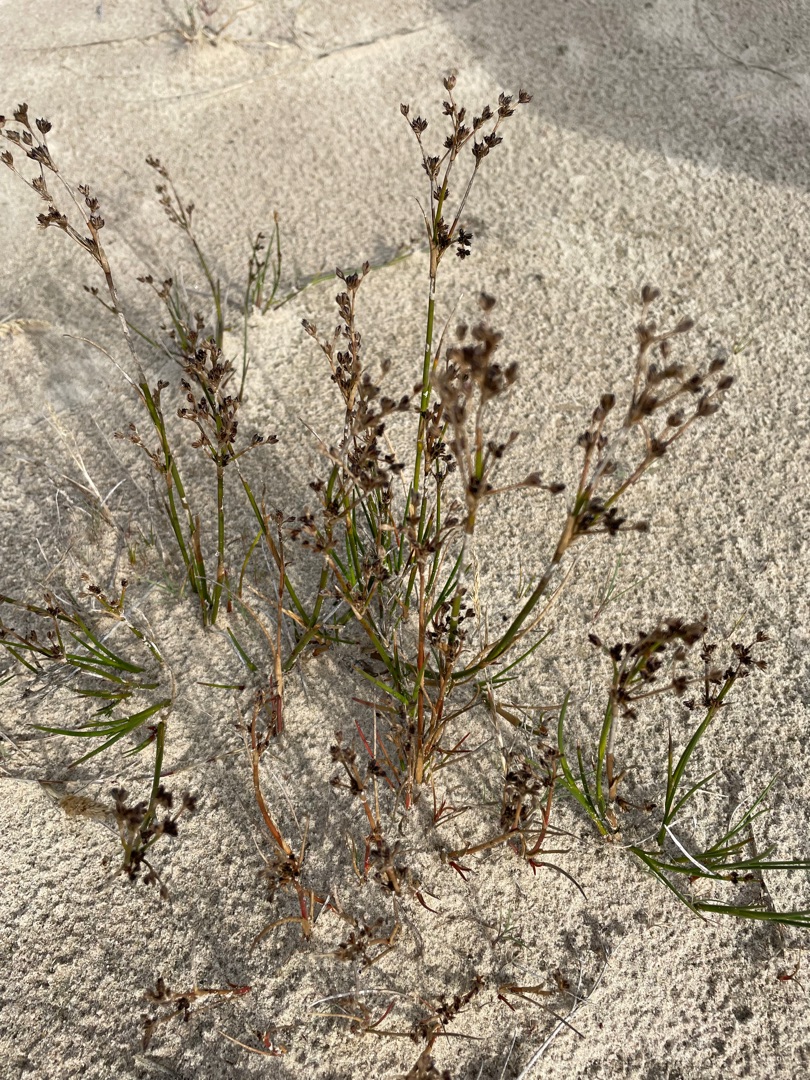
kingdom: Plantae
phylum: Tracheophyta
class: Liliopsida
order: Poales
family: Juncaceae
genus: Juncus
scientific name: Juncus articulatus
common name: Glanskapslet siv
